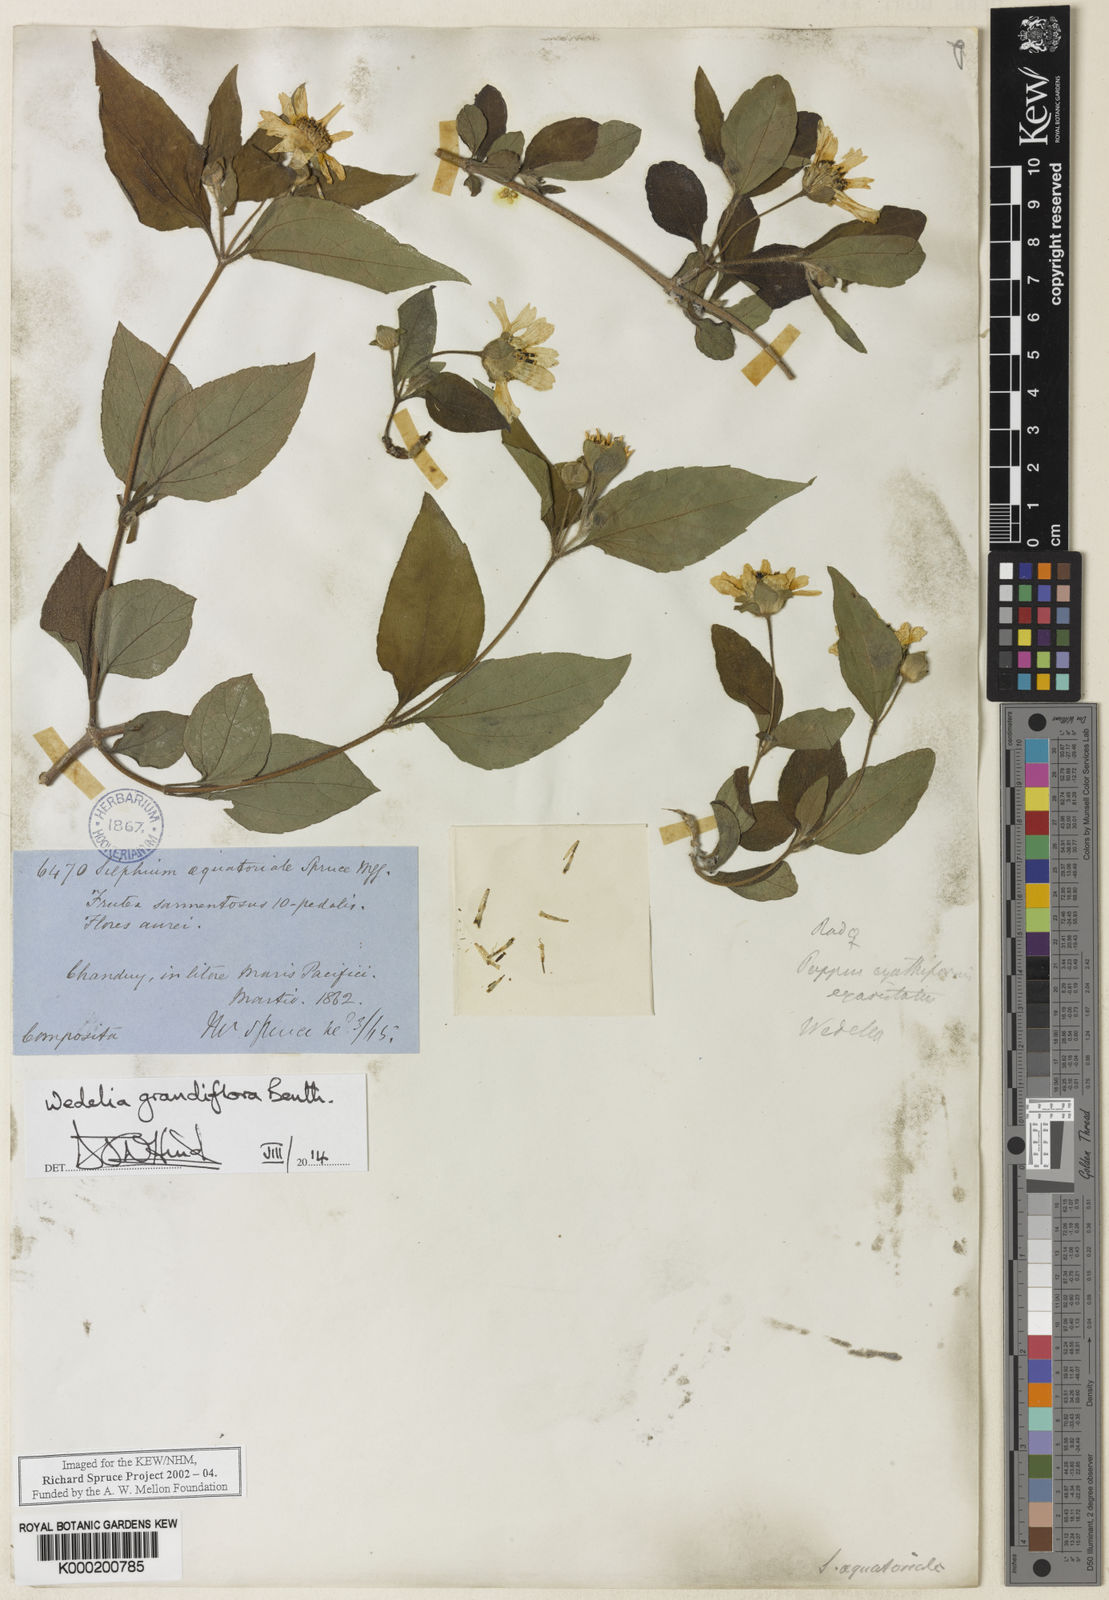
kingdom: Plantae
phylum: Tracheophyta
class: Magnoliopsida
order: Asterales
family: Asteraceae
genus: Wedelia
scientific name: Wedelia grandiflora
